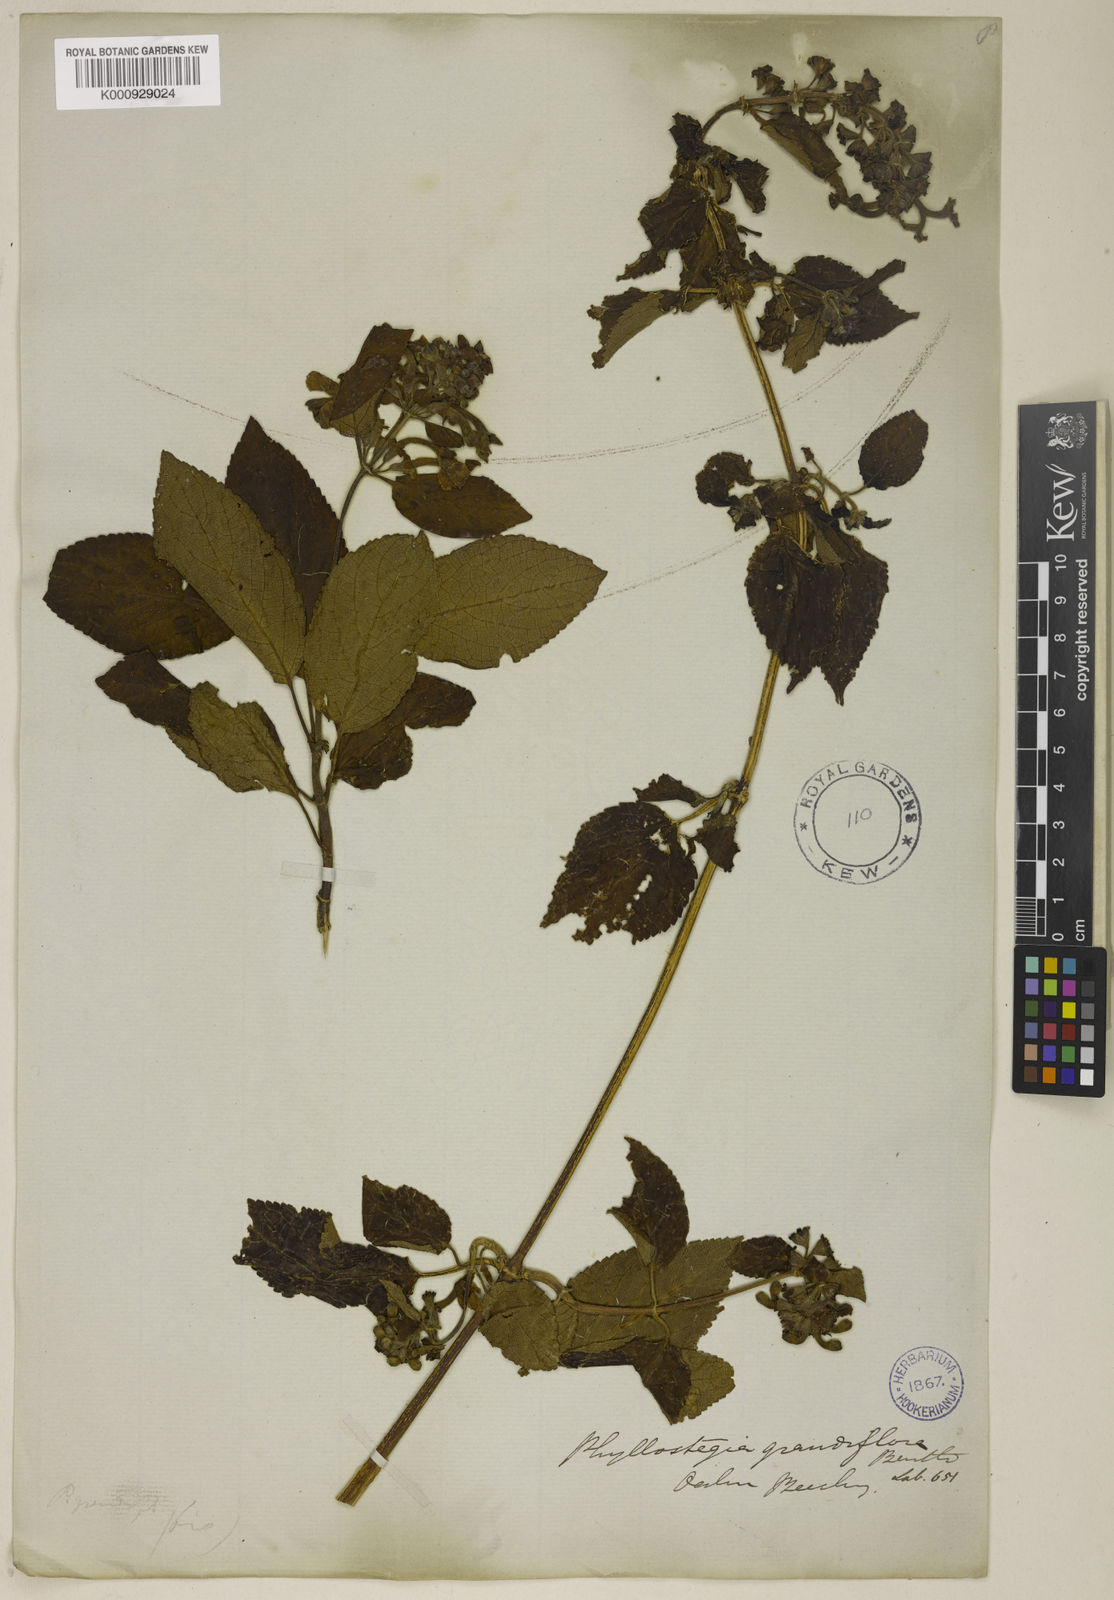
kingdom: Plantae
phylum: Tracheophyta
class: Magnoliopsida
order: Lamiales
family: Lamiaceae
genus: Phyllostegia
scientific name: Phyllostegia grandiflora
